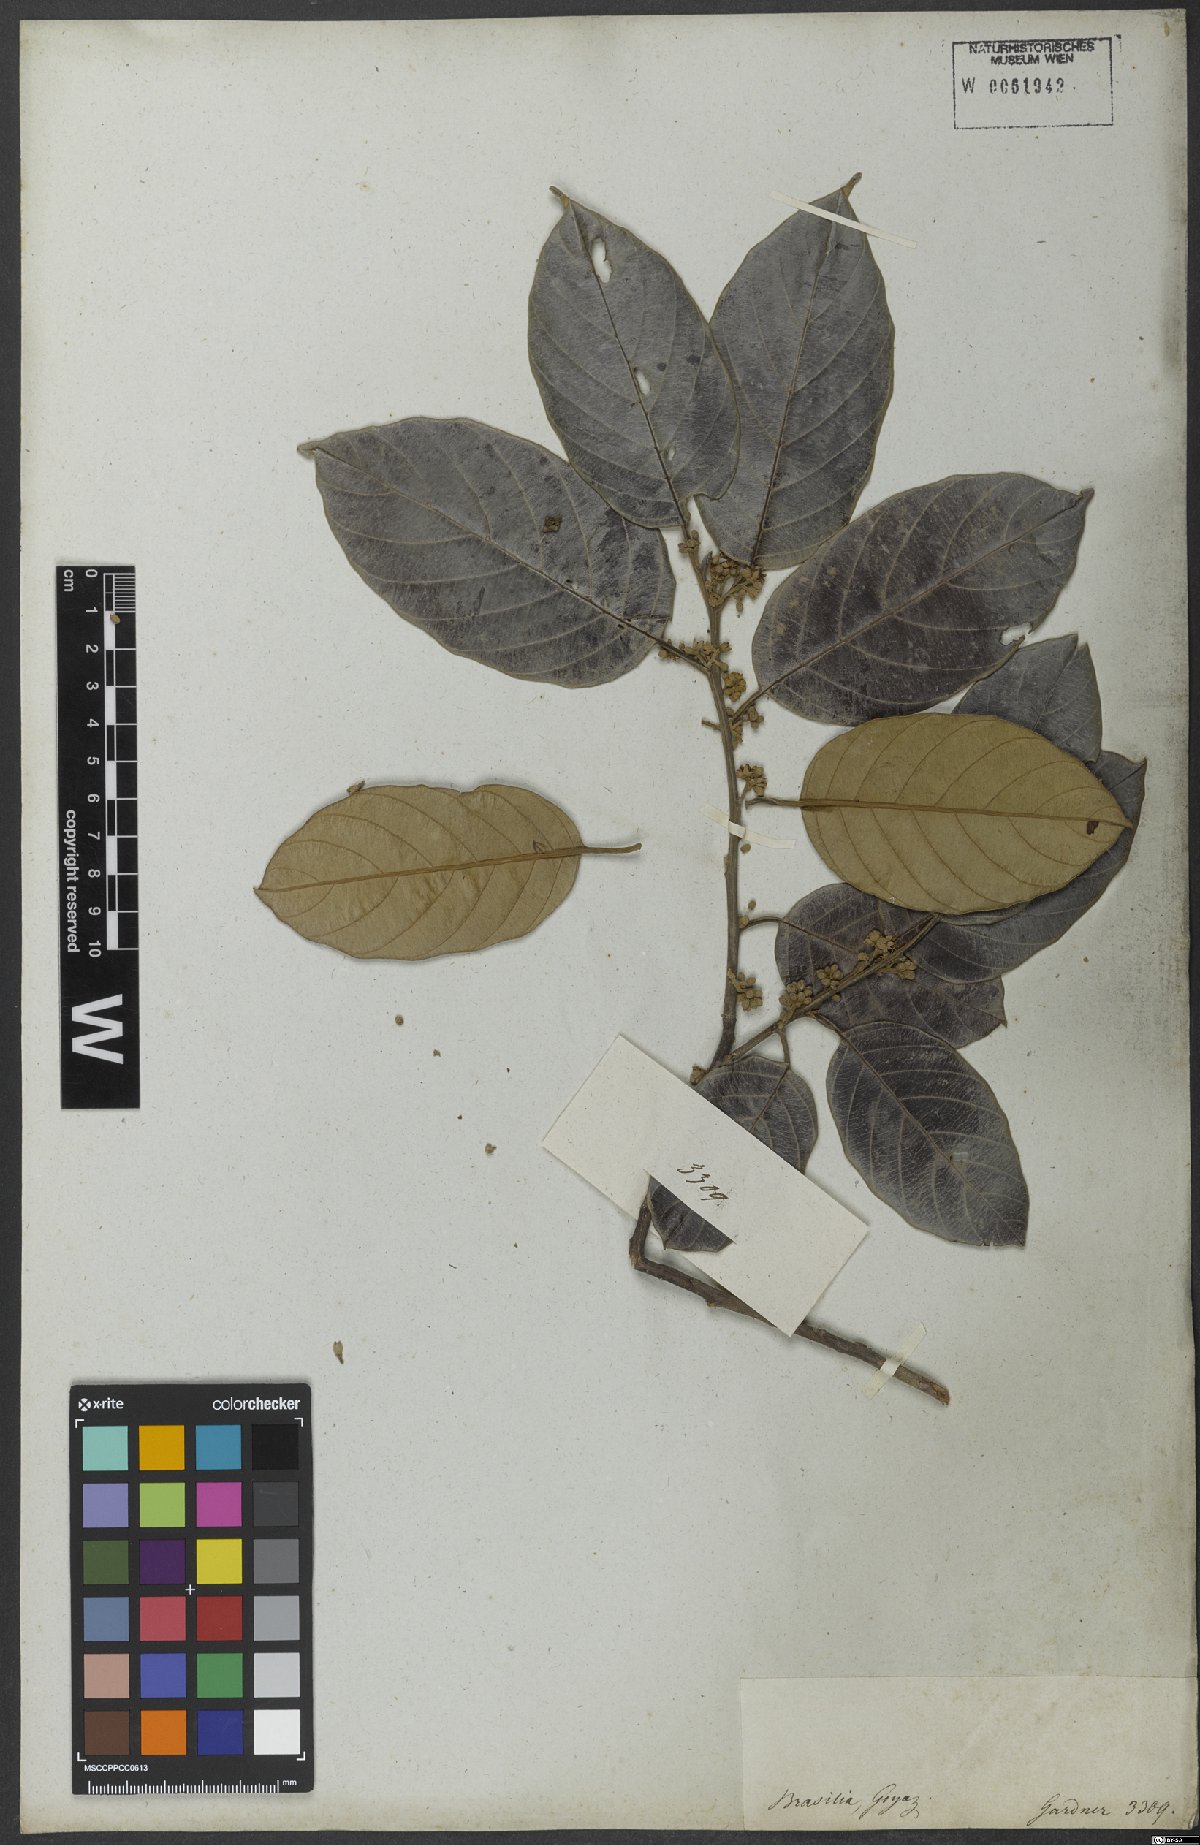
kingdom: Plantae
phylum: Tracheophyta
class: Magnoliopsida
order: Metteniusales
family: Metteniusaceae
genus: Emmotum
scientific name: Emmotum nitens
